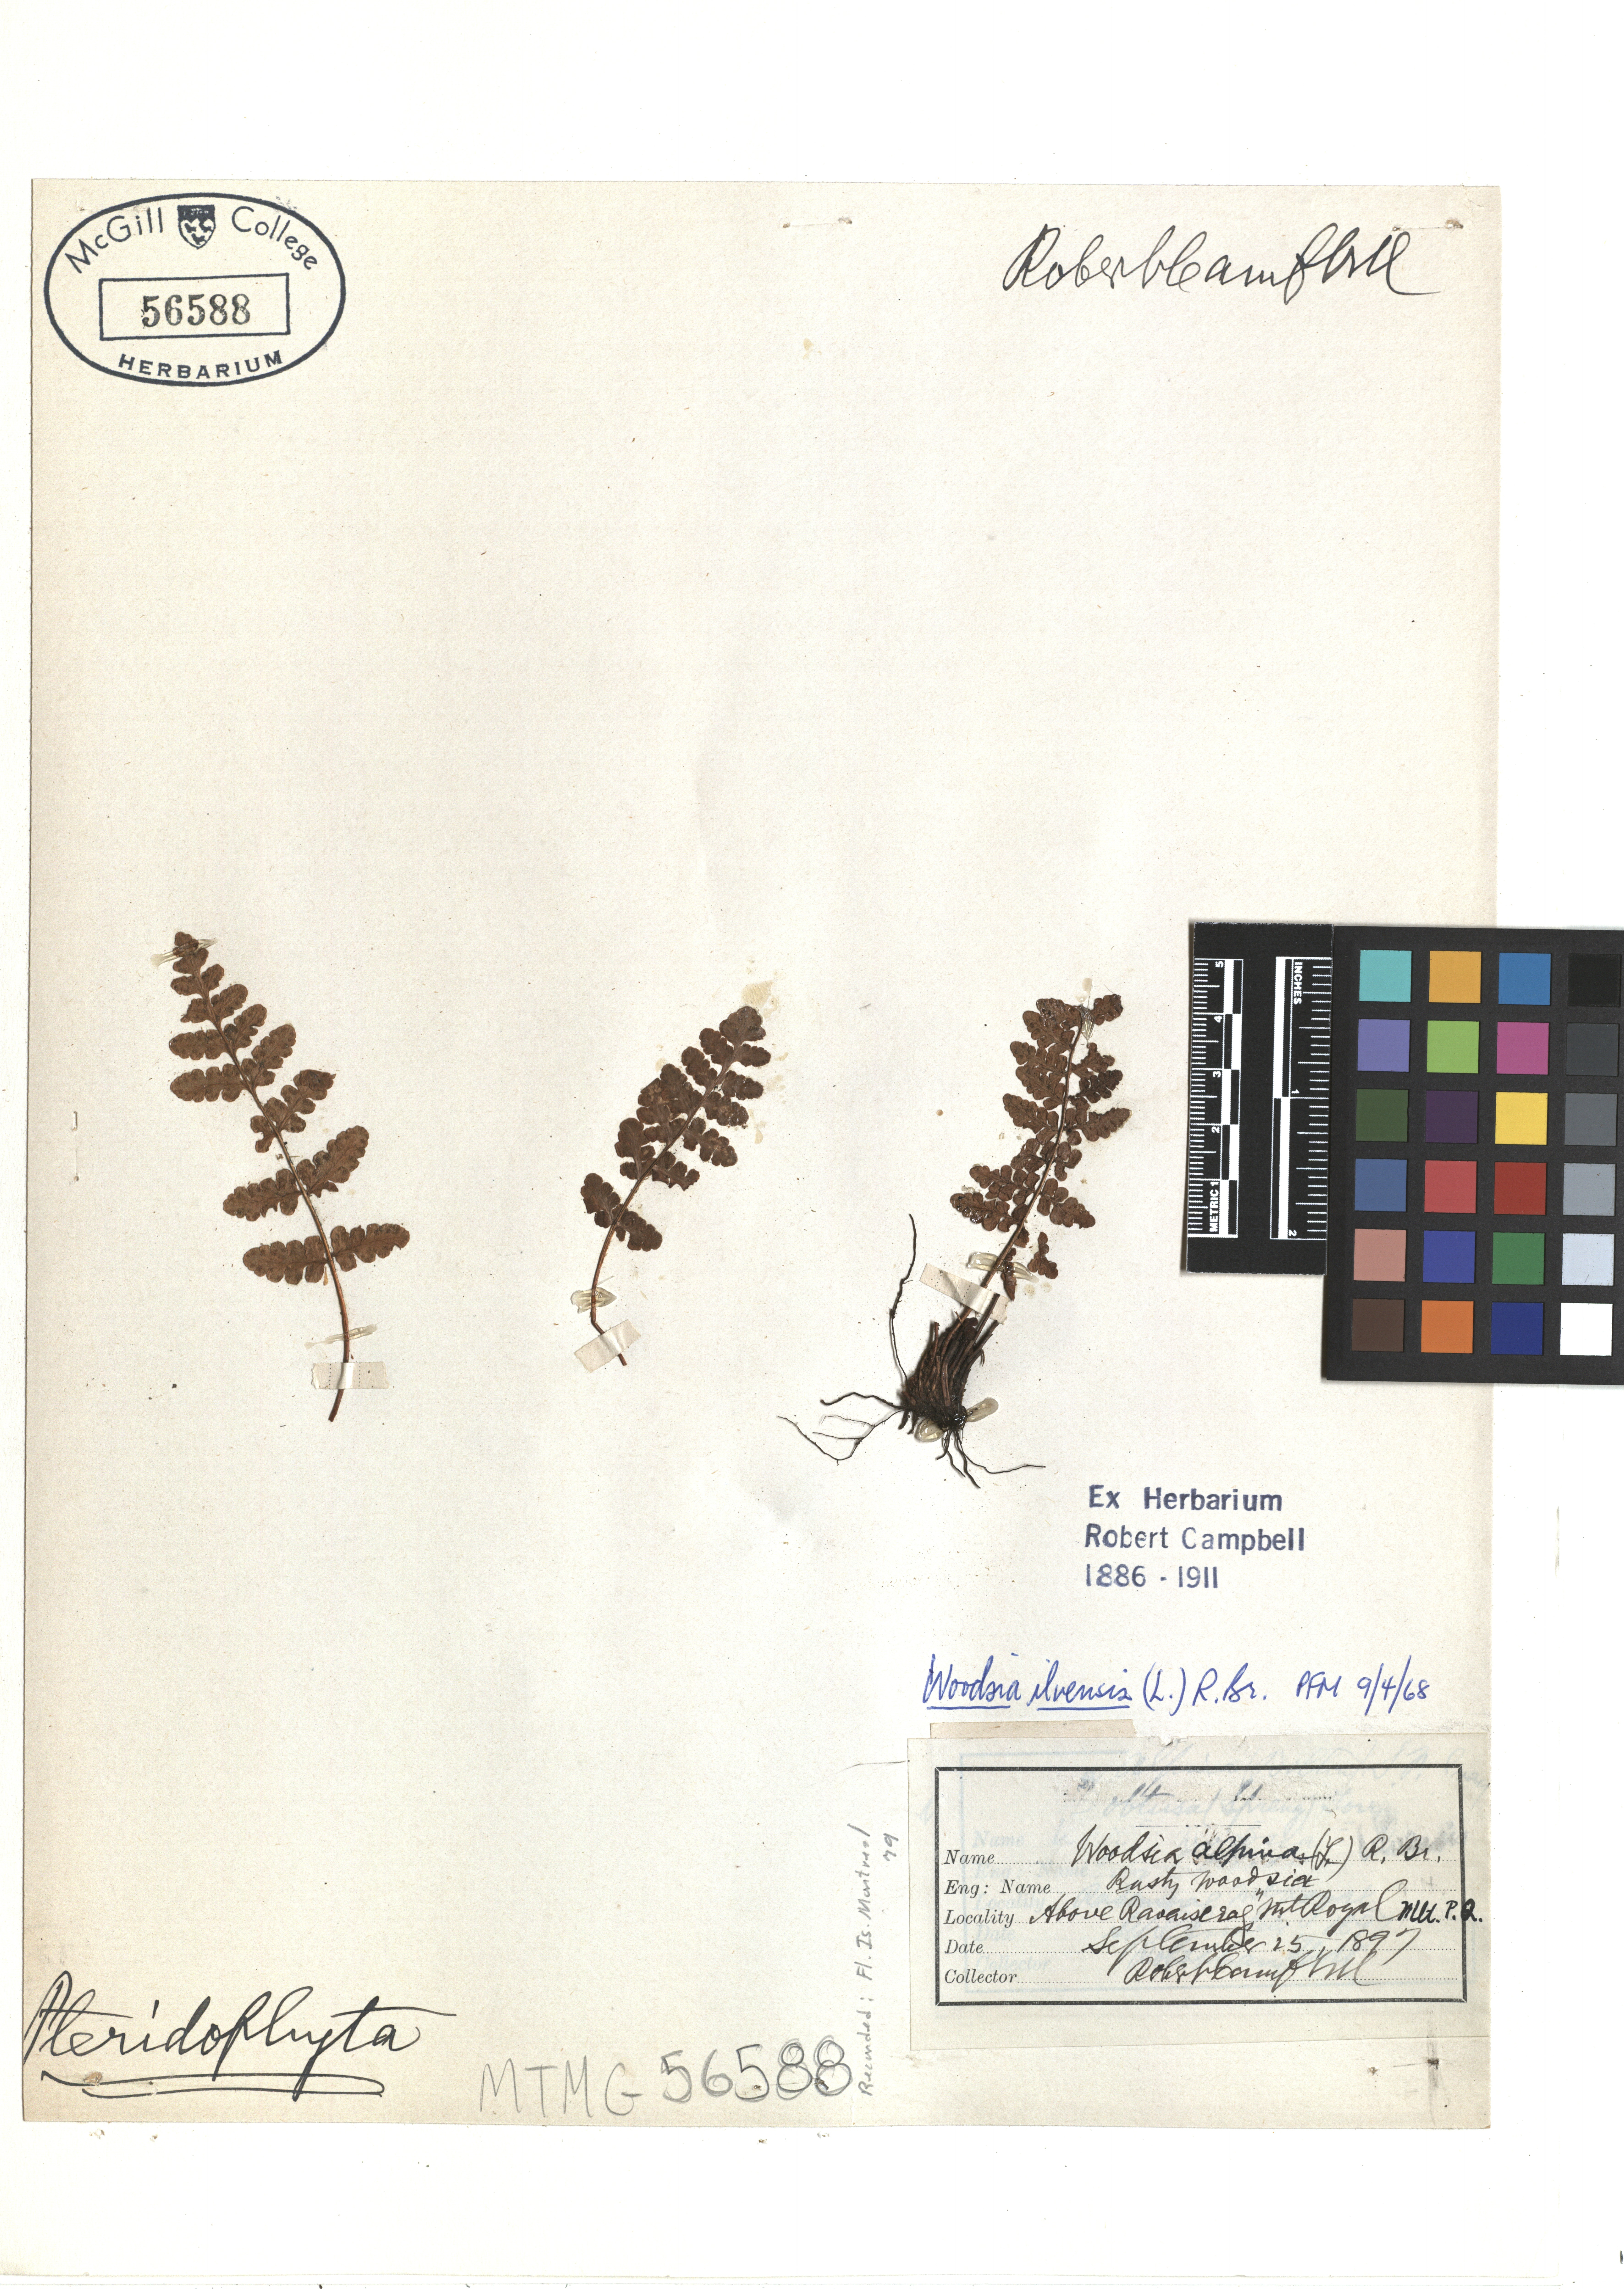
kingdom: Plantae
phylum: Tracheophyta
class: Polypodiopsida
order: Polypodiales
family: Woodsiaceae
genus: Woodsia
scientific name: Woodsia ilvensis
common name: Fragrant woodsia
